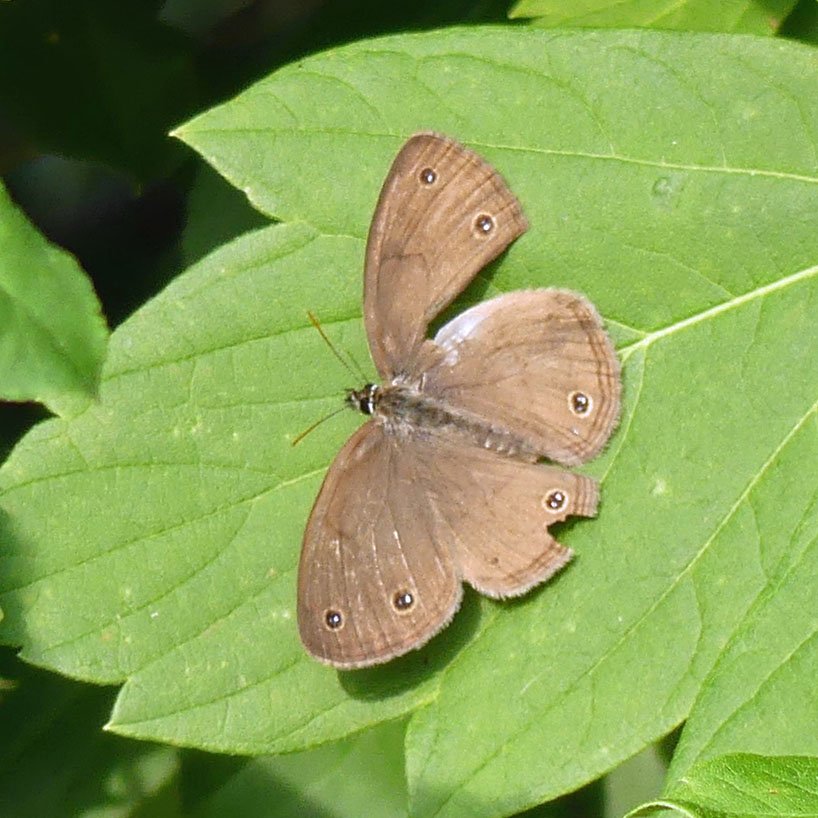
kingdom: Animalia
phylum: Arthropoda
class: Insecta
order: Lepidoptera
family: Nymphalidae
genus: Euptychia
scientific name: Euptychia cymela
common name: Little Wood Satyr
